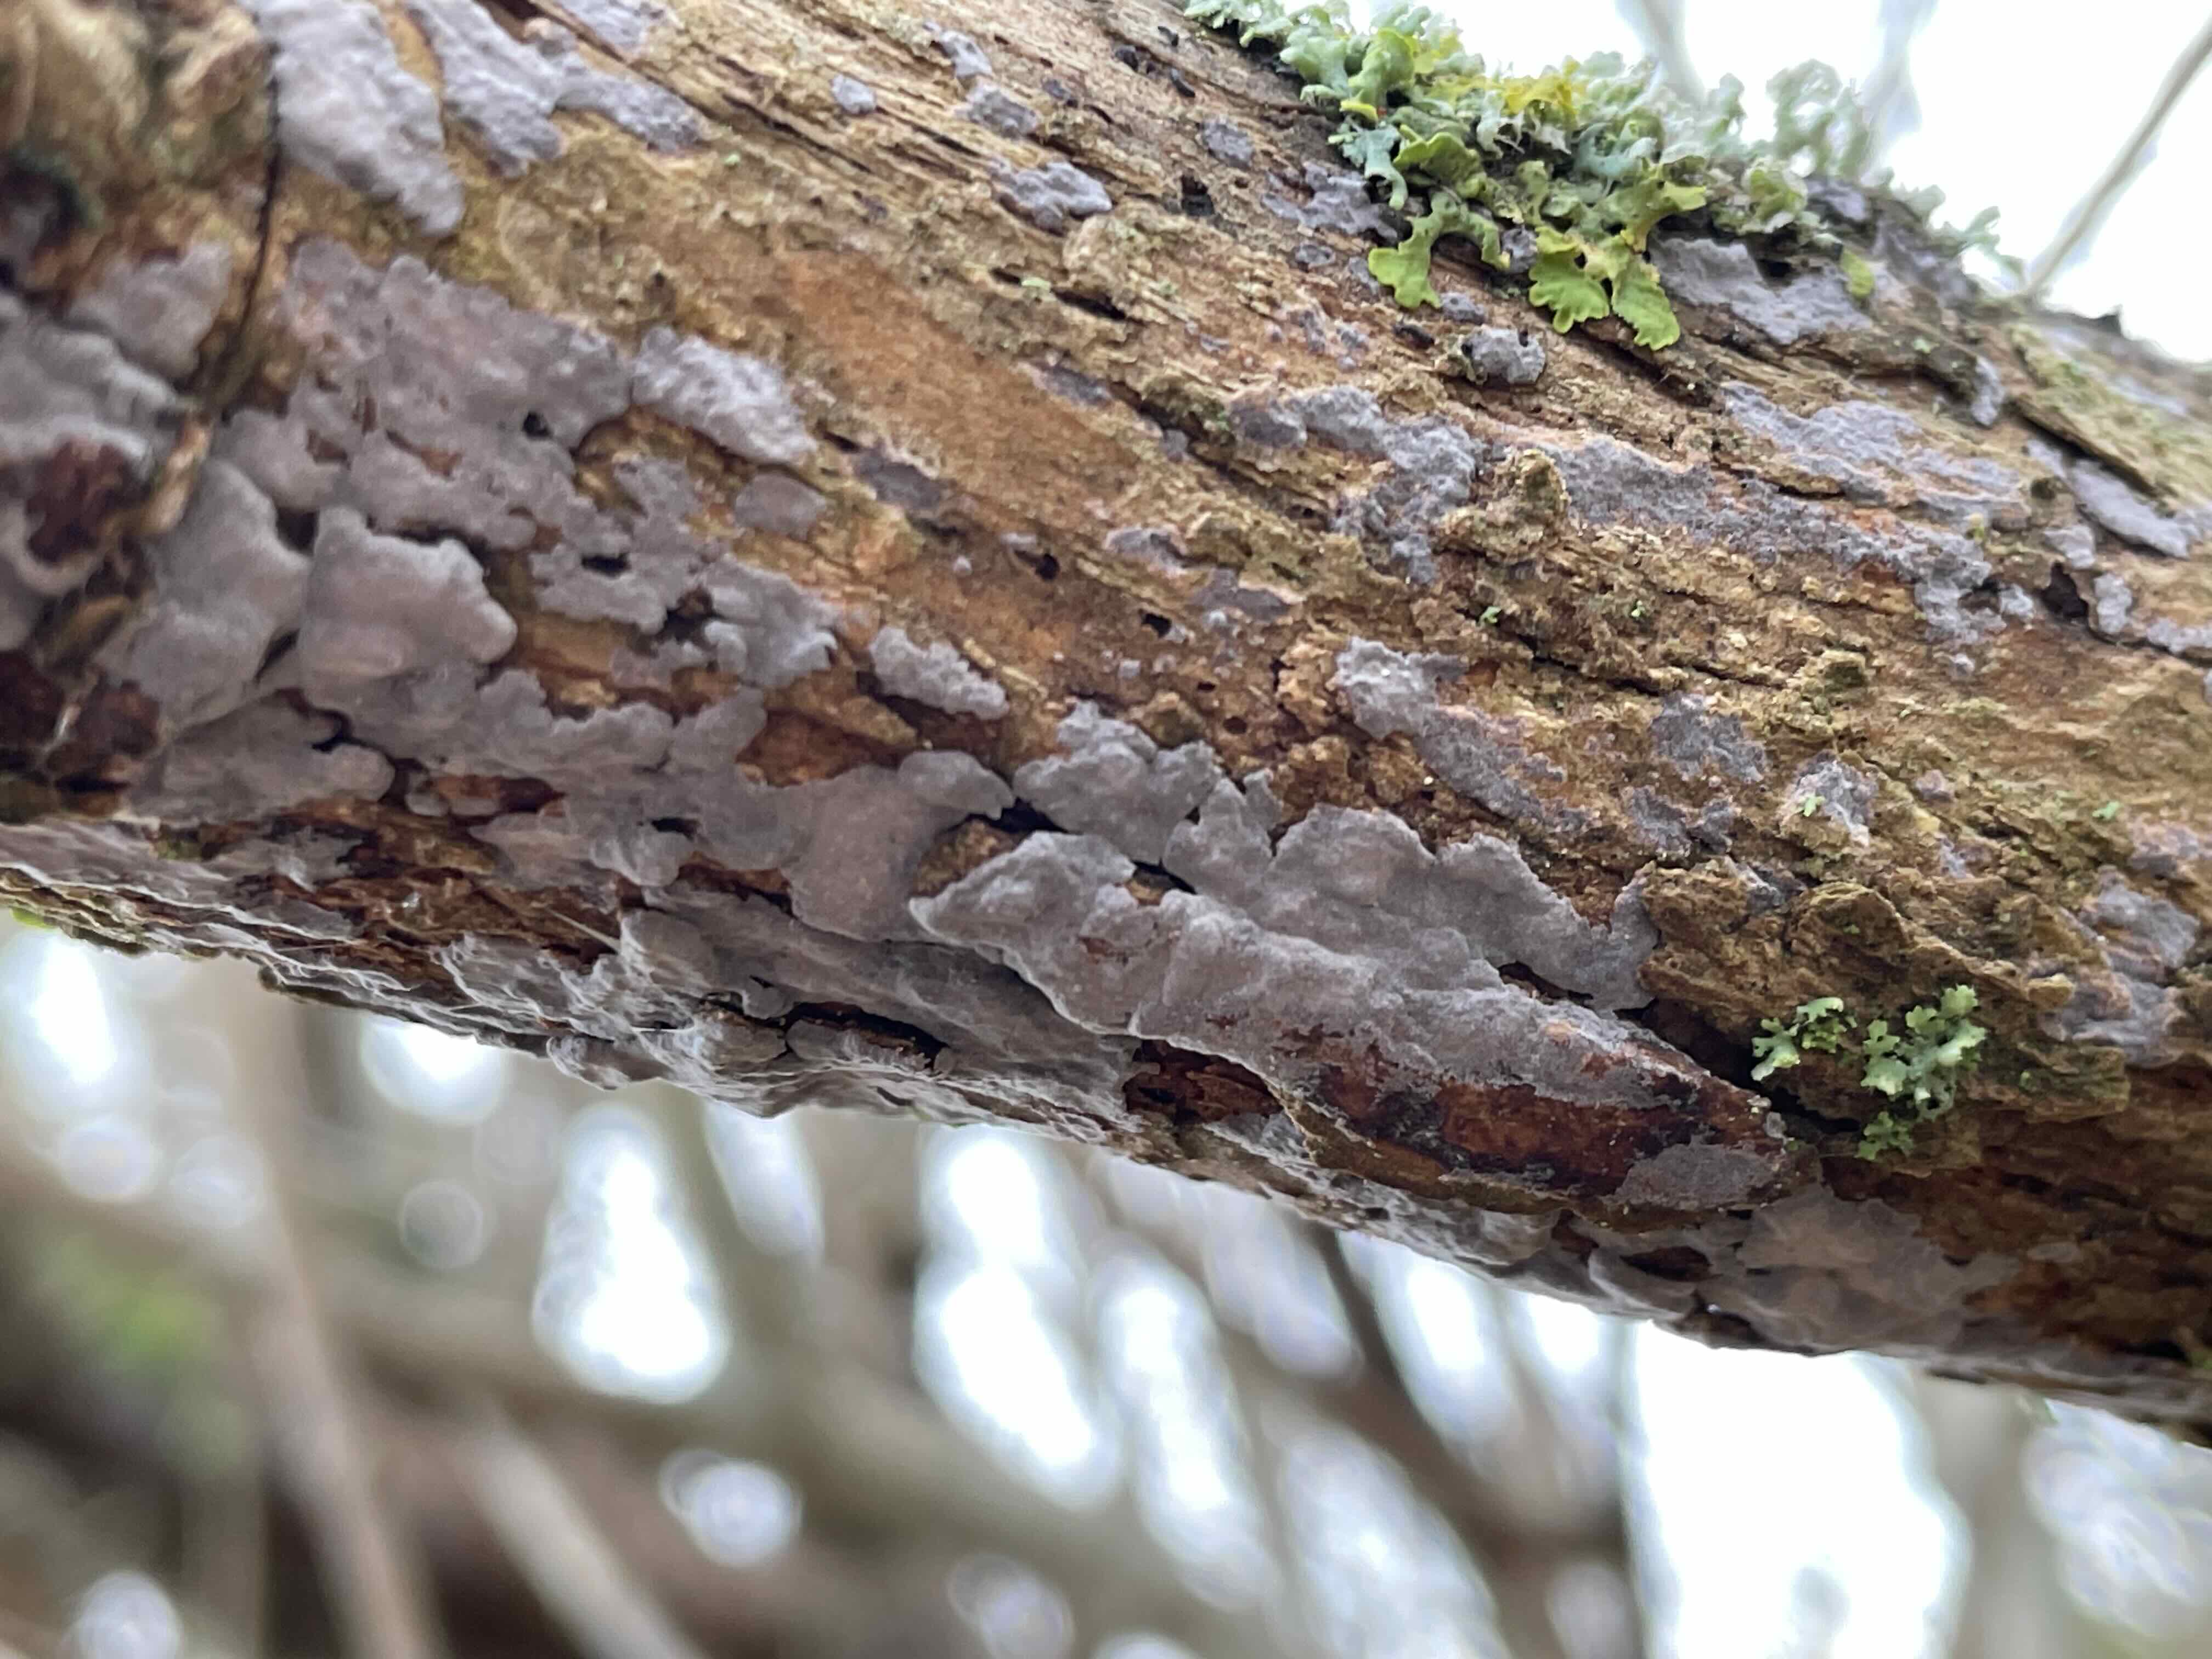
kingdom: Fungi
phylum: Basidiomycota
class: Agaricomycetes
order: Russulales
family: Peniophoraceae
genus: Peniophora
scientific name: Peniophora lycii
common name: grynet voksskind
